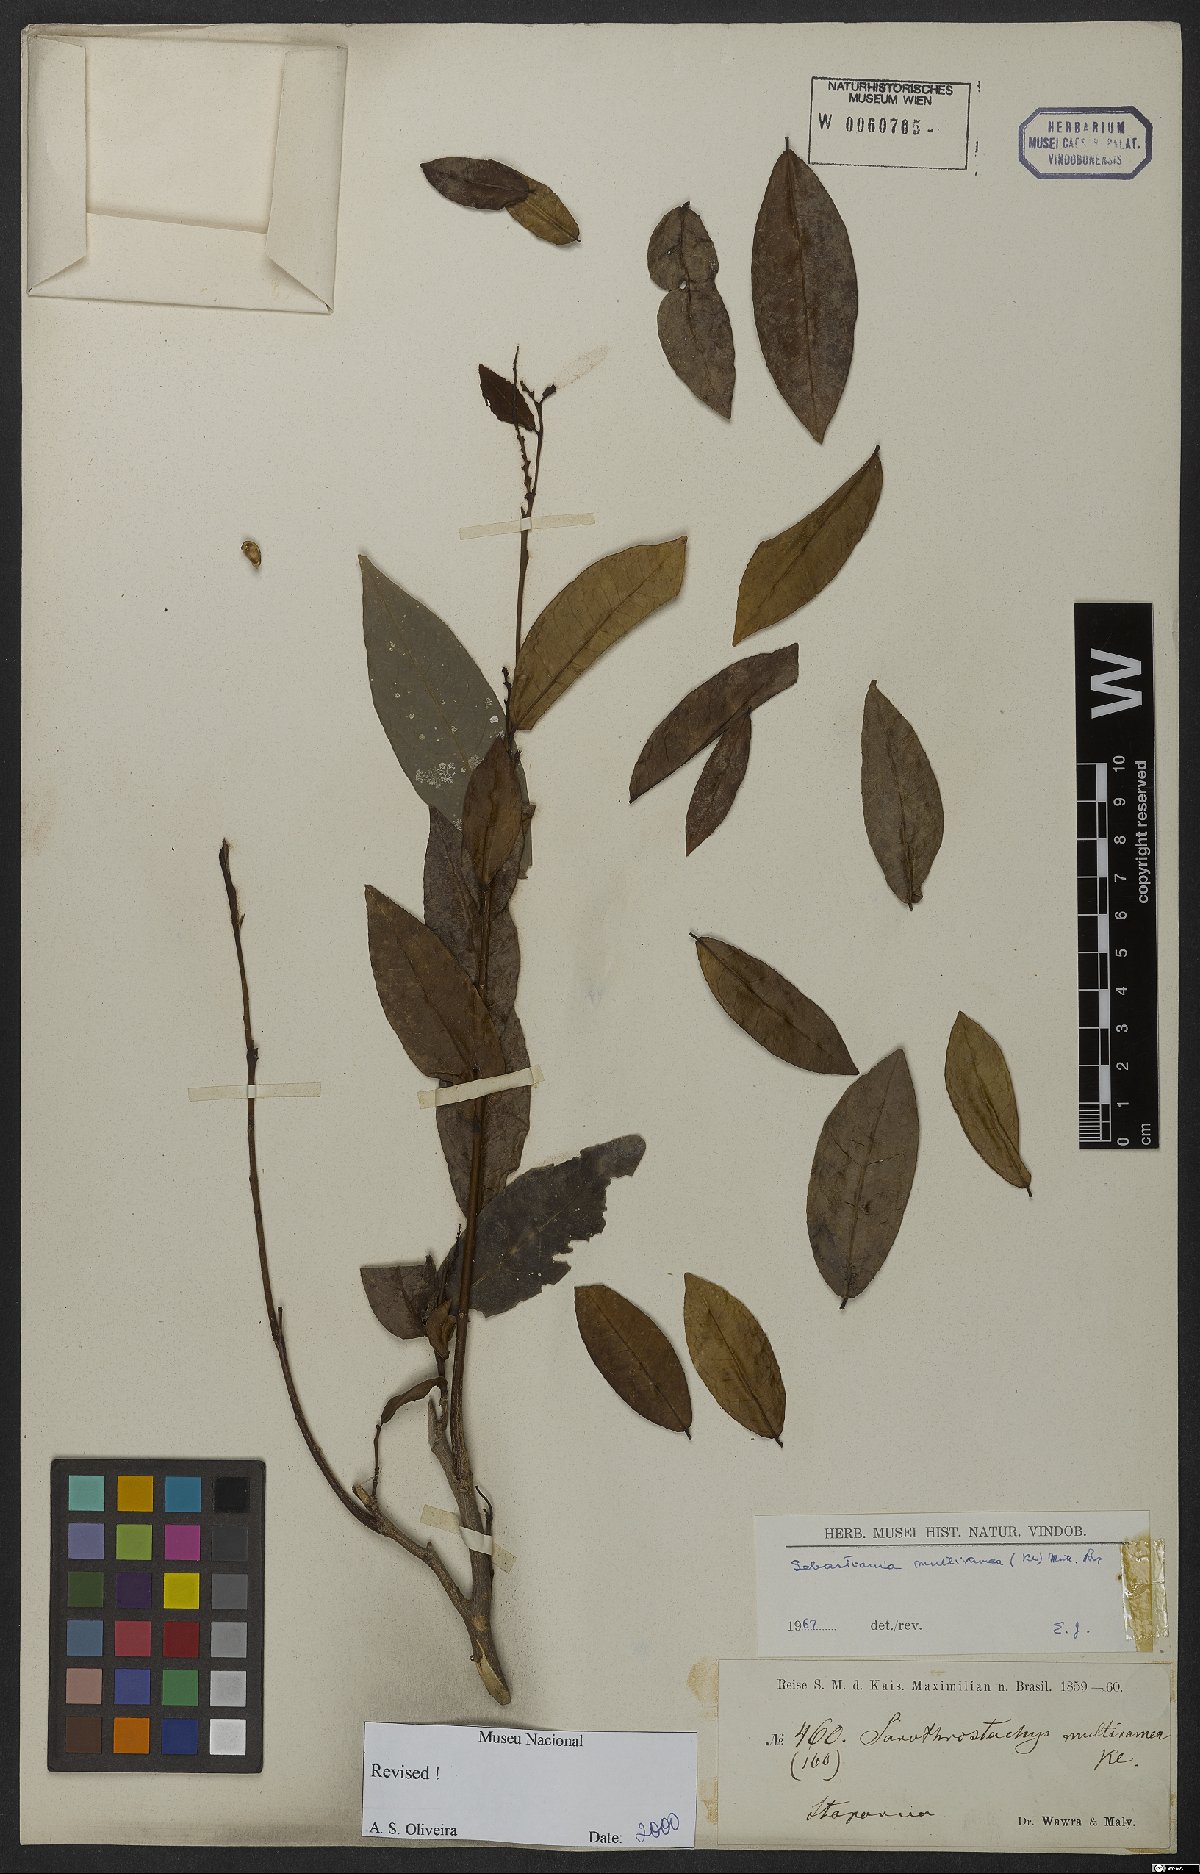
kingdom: Plantae
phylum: Tracheophyta
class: Magnoliopsida
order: Malpighiales
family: Euphorbiaceae
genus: Gymnanthes
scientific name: Gymnanthes glabrata
